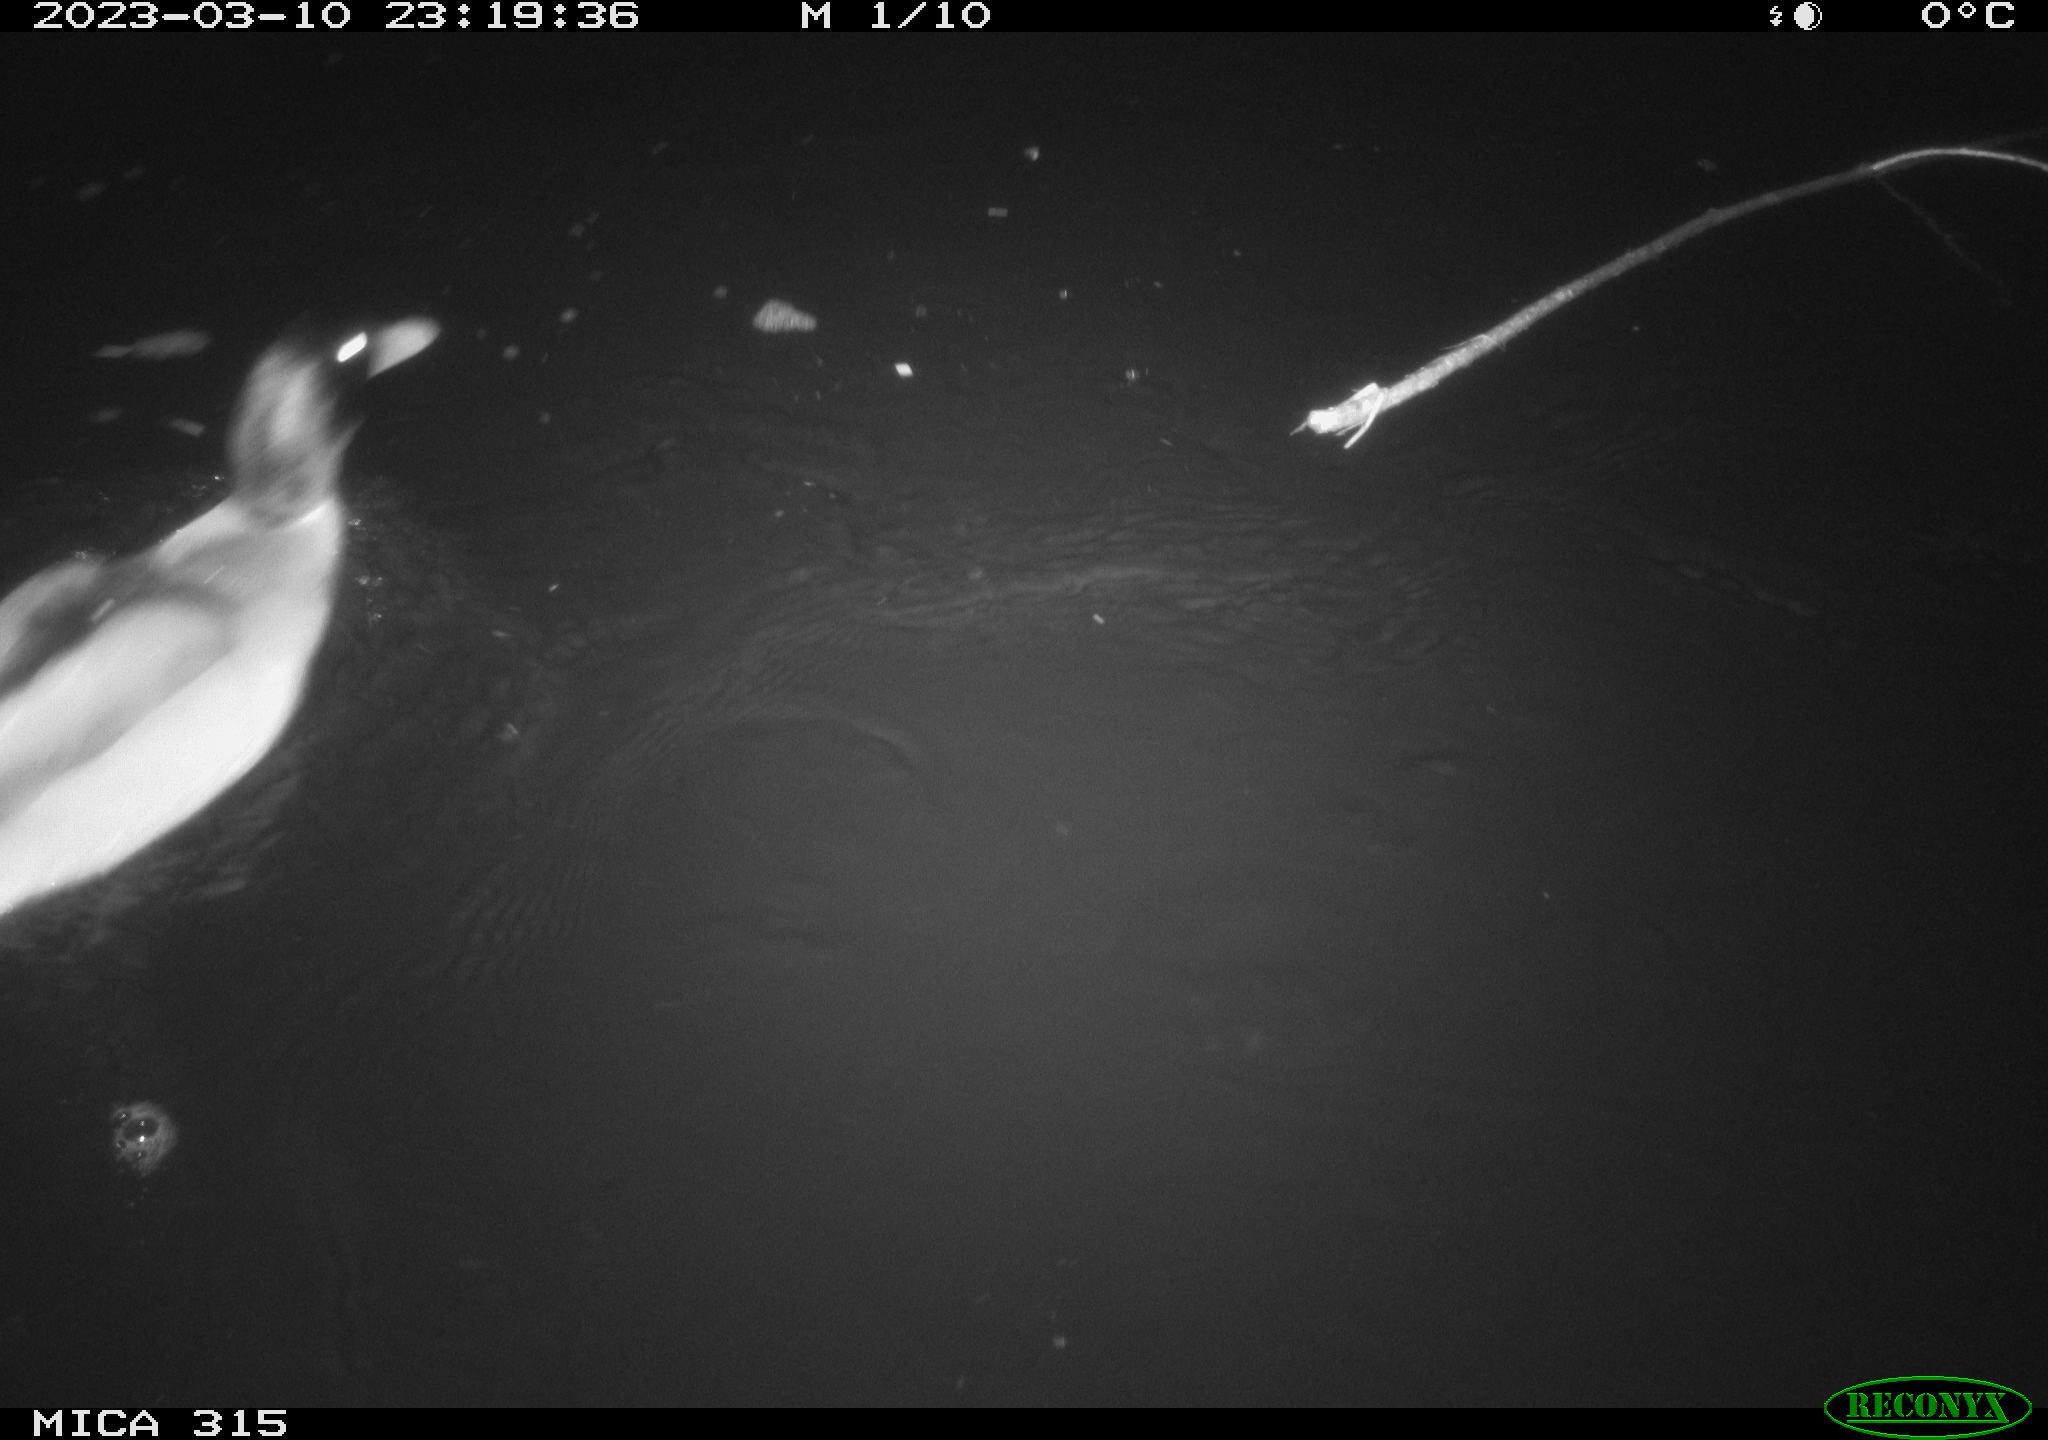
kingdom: Animalia
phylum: Chordata
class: Aves
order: Anseriformes
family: Anatidae
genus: Anas
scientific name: Anas
